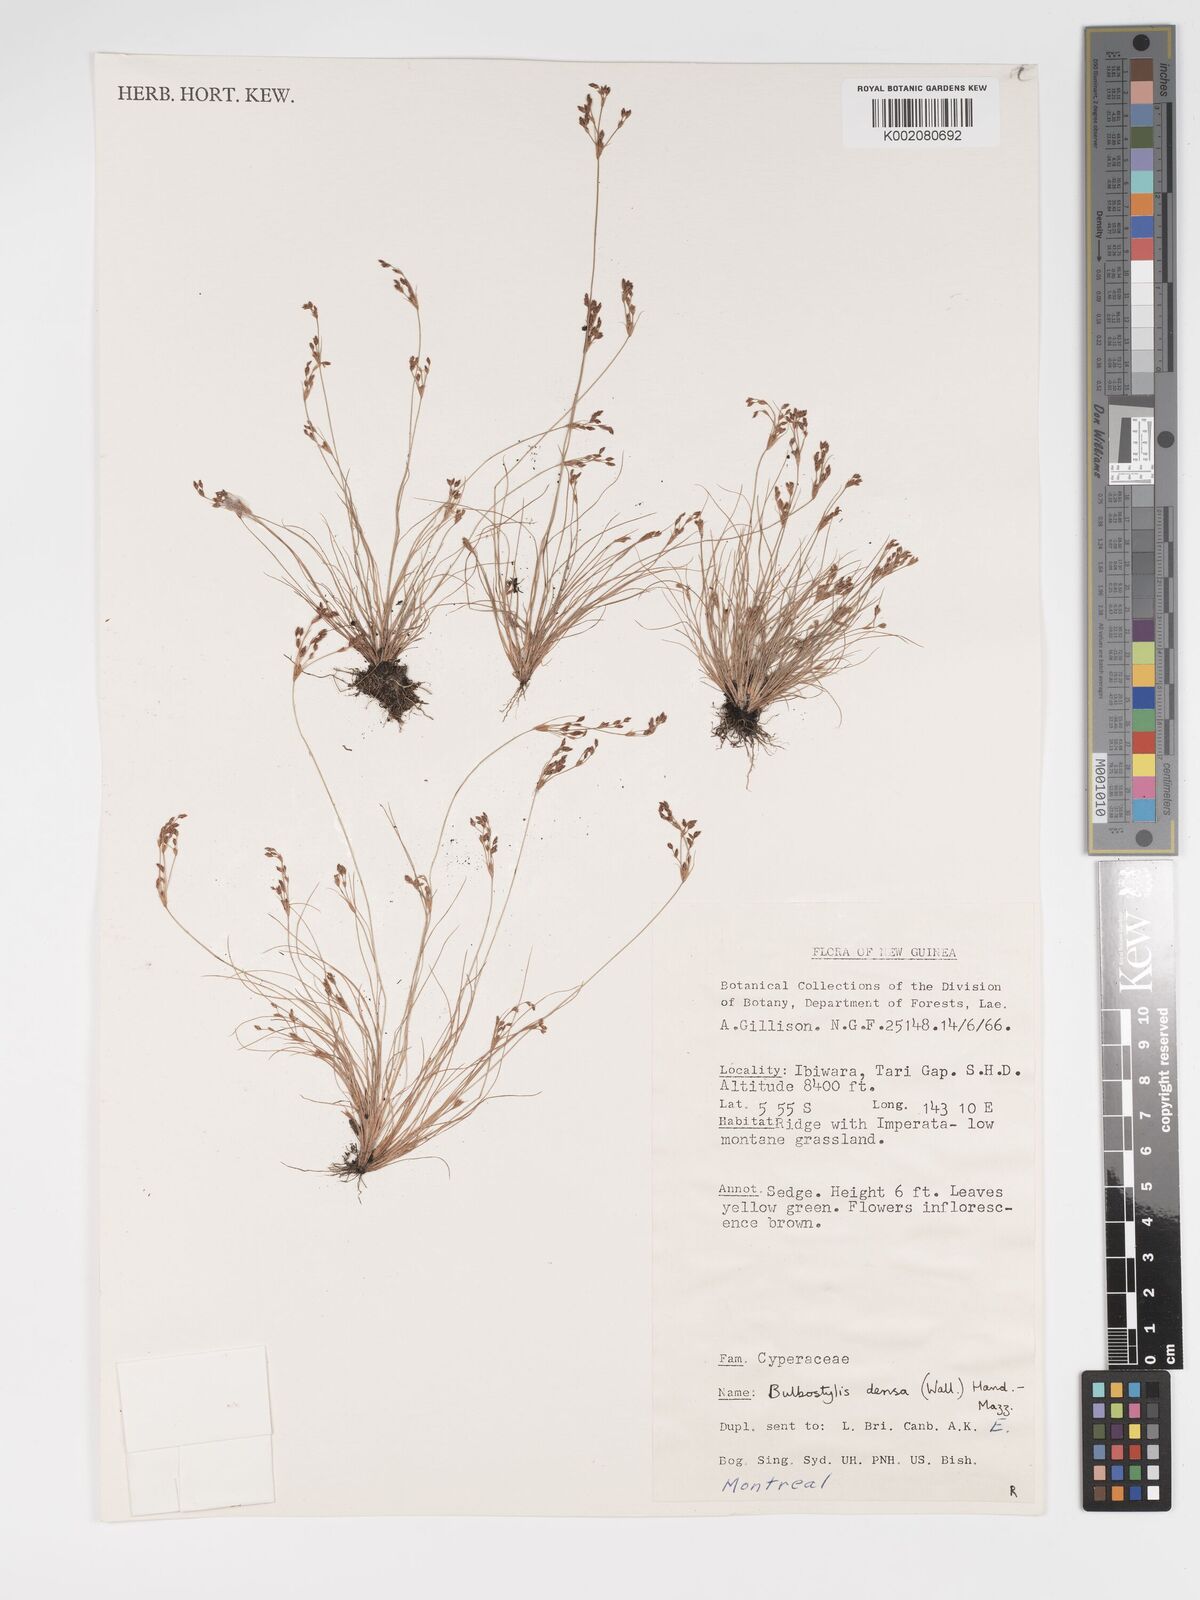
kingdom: Plantae
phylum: Tracheophyta
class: Liliopsida
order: Poales
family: Cyperaceae
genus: Bulbostylis
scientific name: Bulbostylis densa
